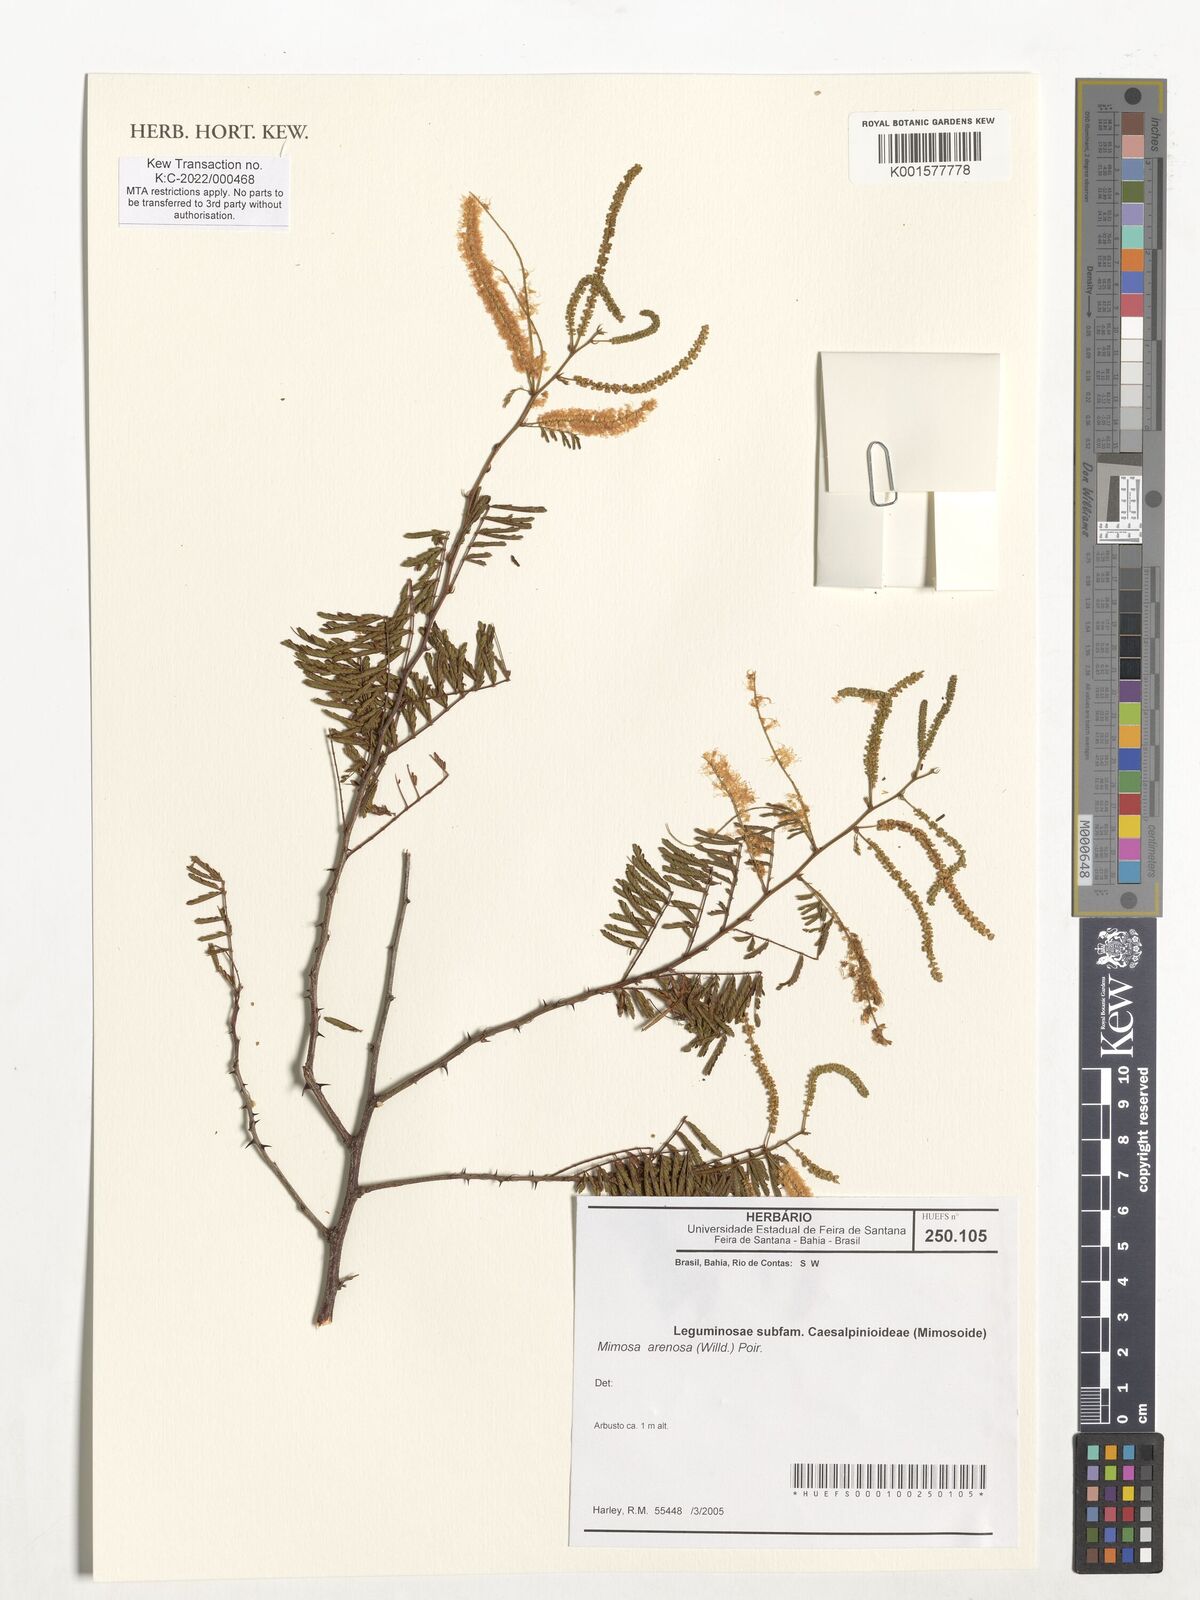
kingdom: Plantae
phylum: Tracheophyta
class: Magnoliopsida
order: Fabales
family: Fabaceae
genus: Mimosa
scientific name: Mimosa arenosa
